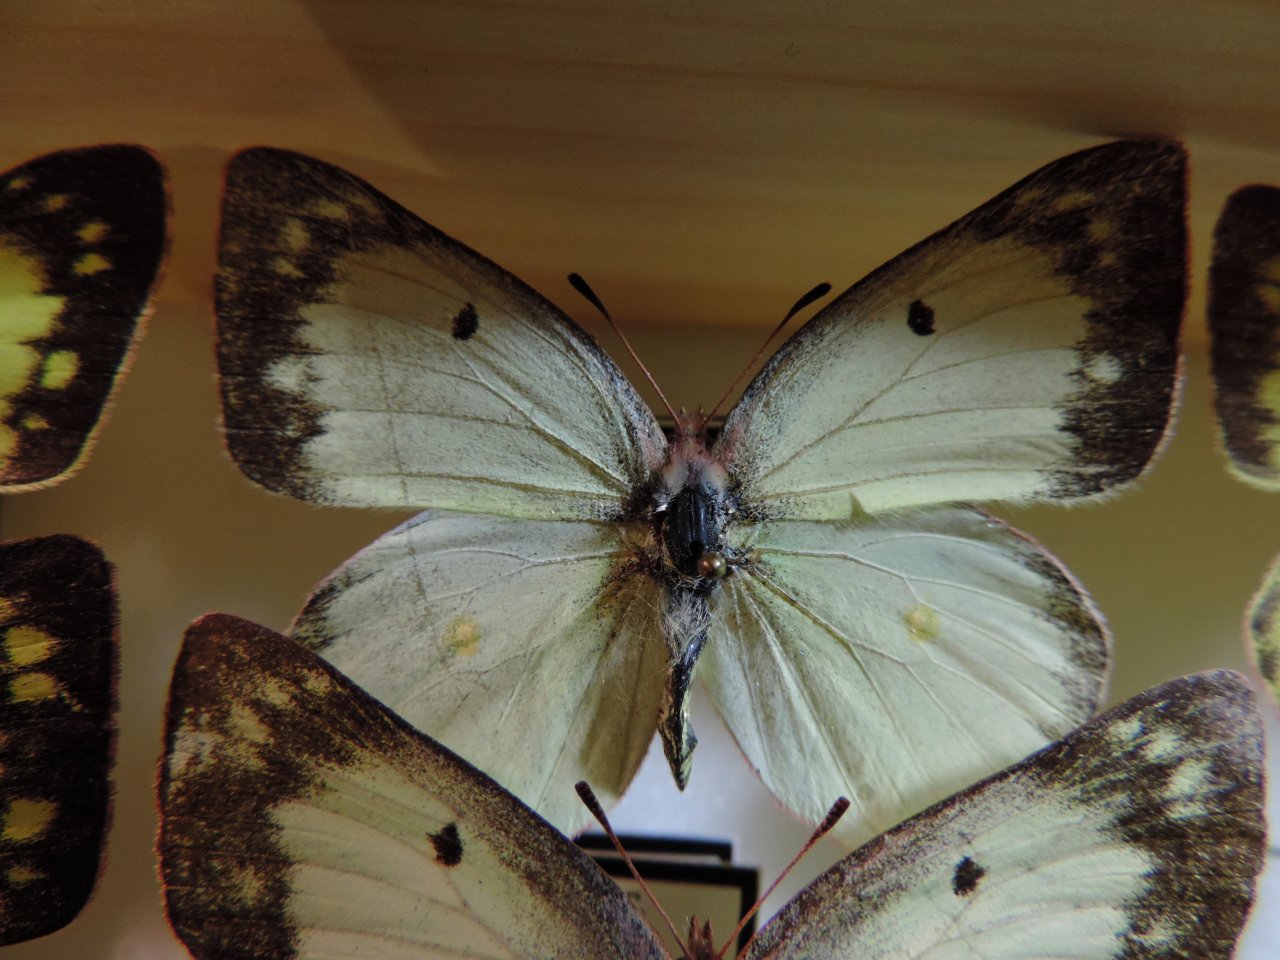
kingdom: Animalia
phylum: Arthropoda
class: Insecta
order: Lepidoptera
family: Pieridae
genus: Colias
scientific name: Colias philodice
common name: Clouded Sulphur
